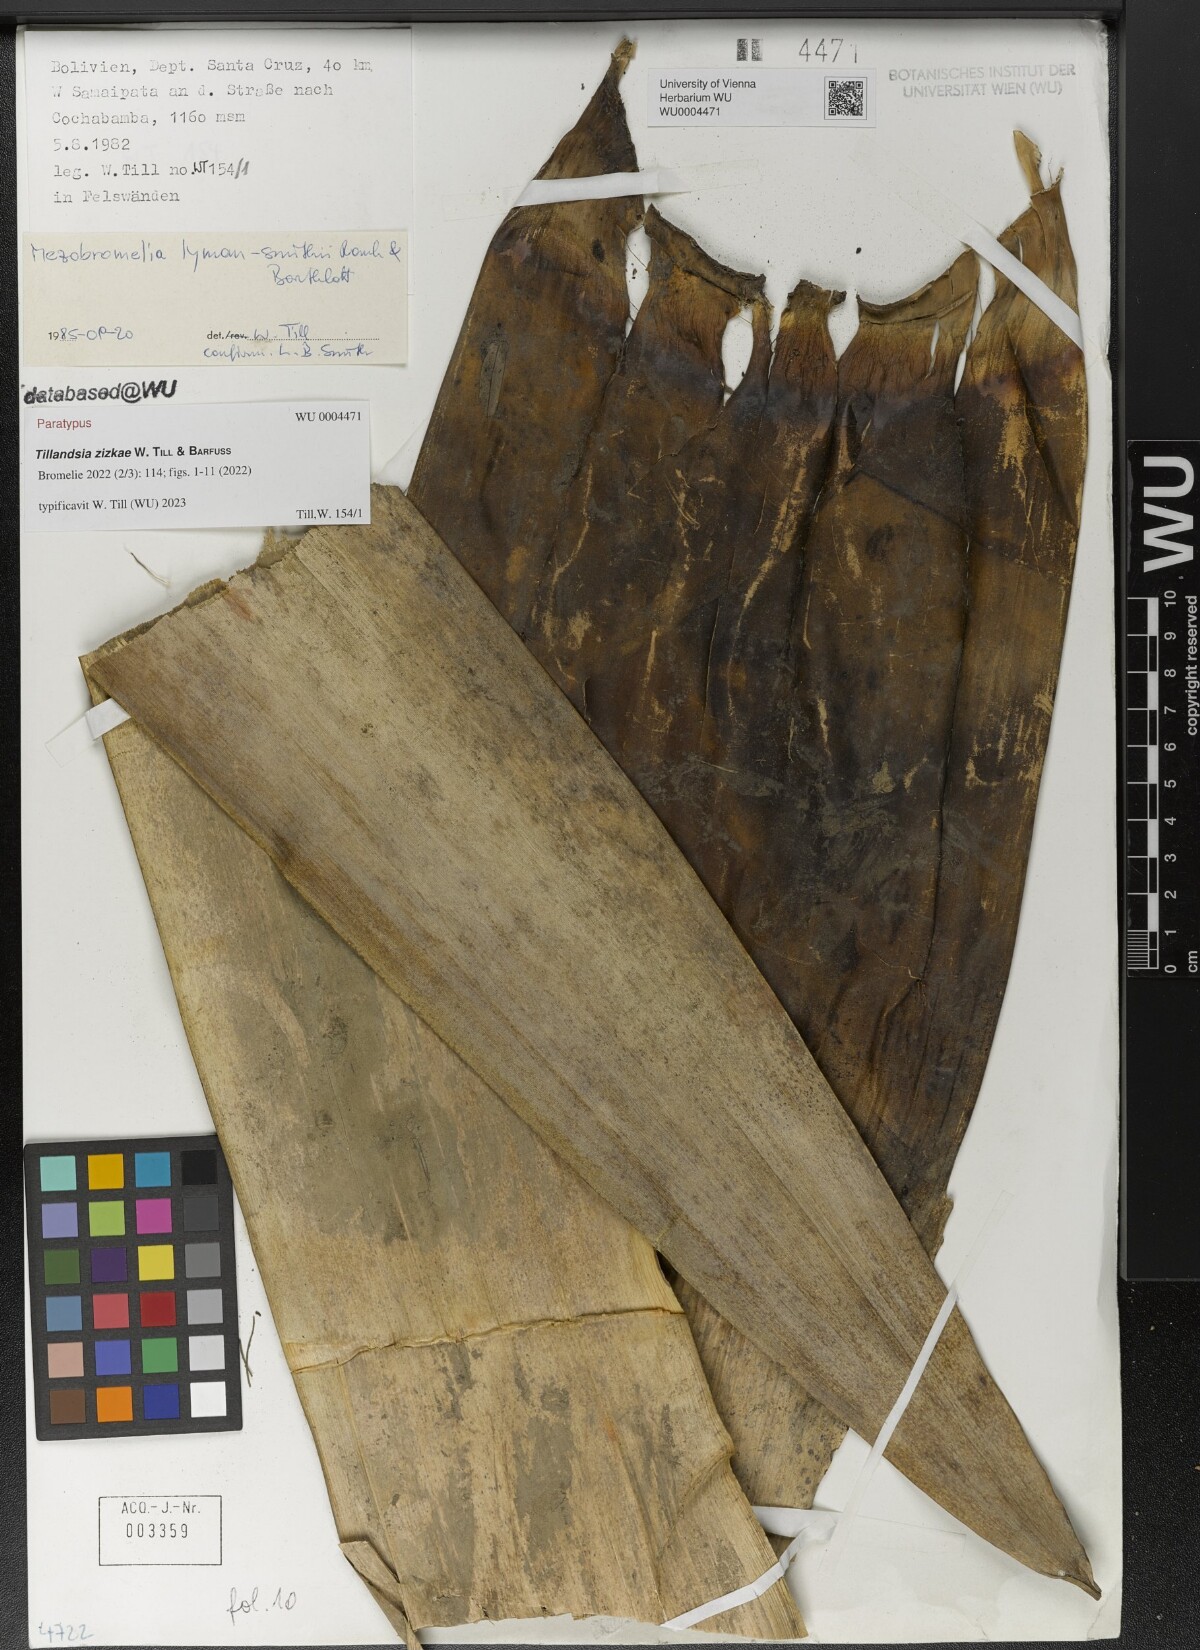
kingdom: Plantae
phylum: Tracheophyta
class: Liliopsida
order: Poales
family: Bromeliaceae
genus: Tillandsia
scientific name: Tillandsia
